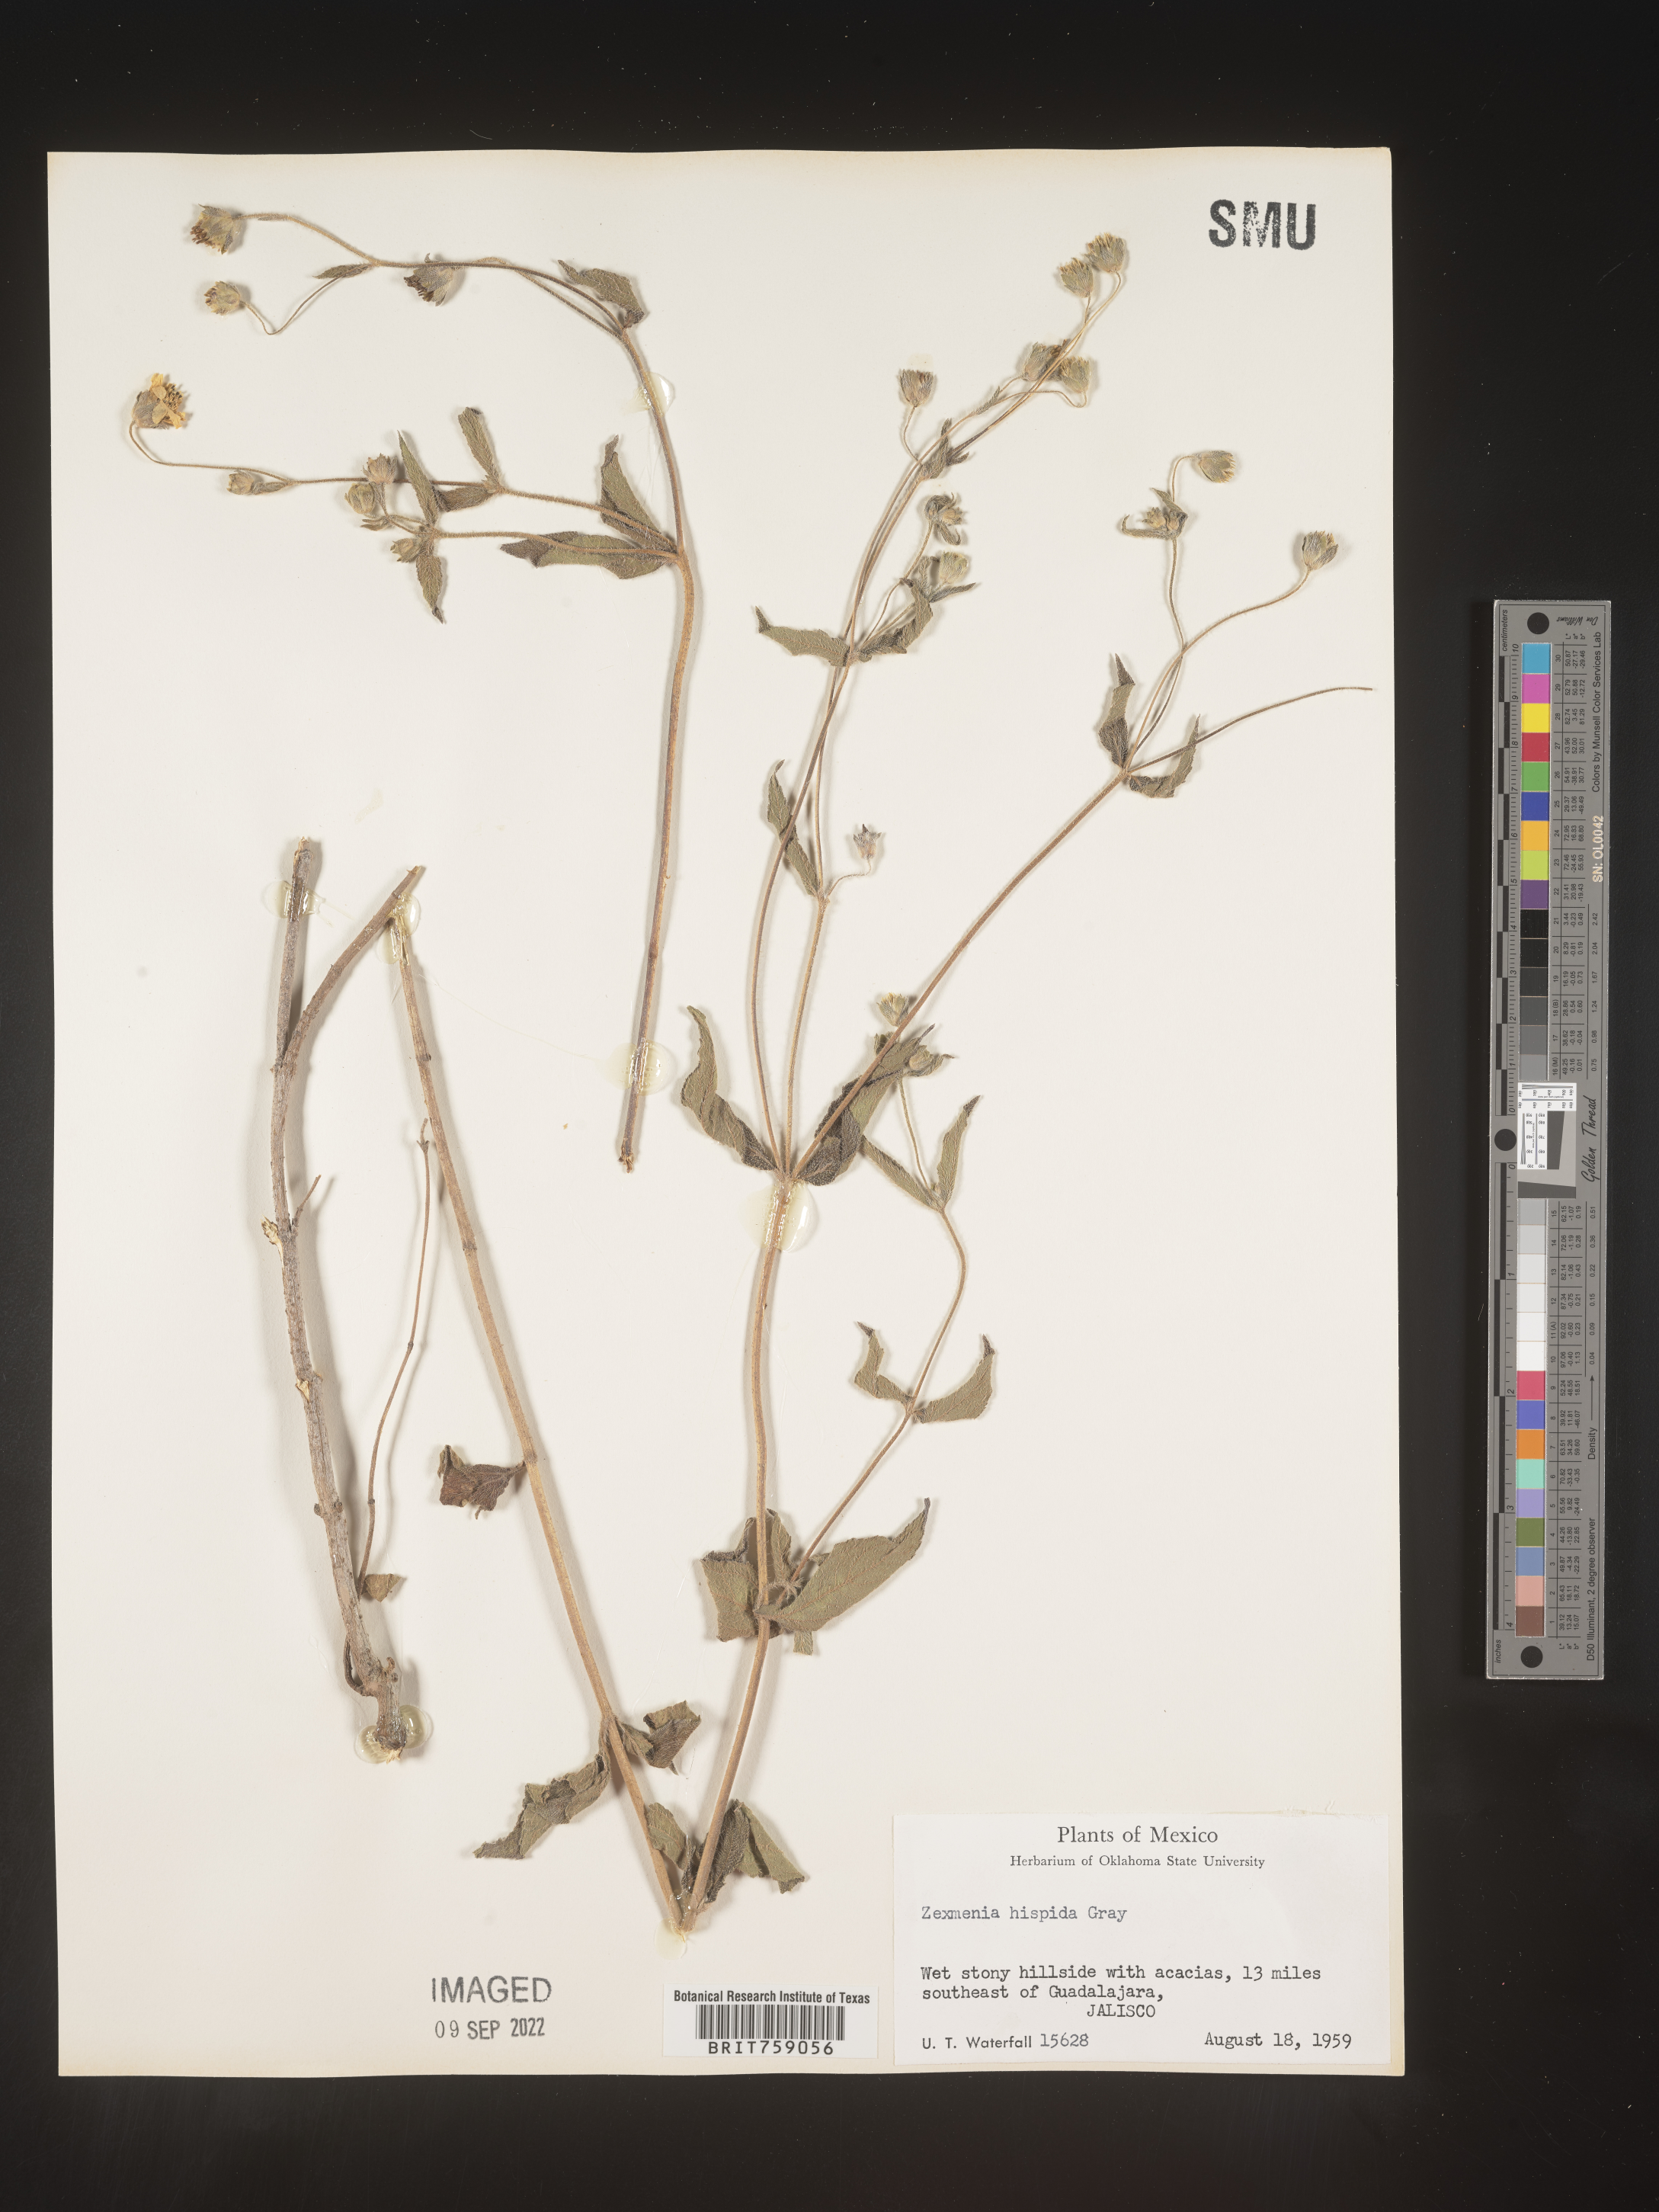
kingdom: Plantae
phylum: Tracheophyta
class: Magnoliopsida
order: Asterales
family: Asteraceae
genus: Wedelia
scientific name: Wedelia acapulcensis
